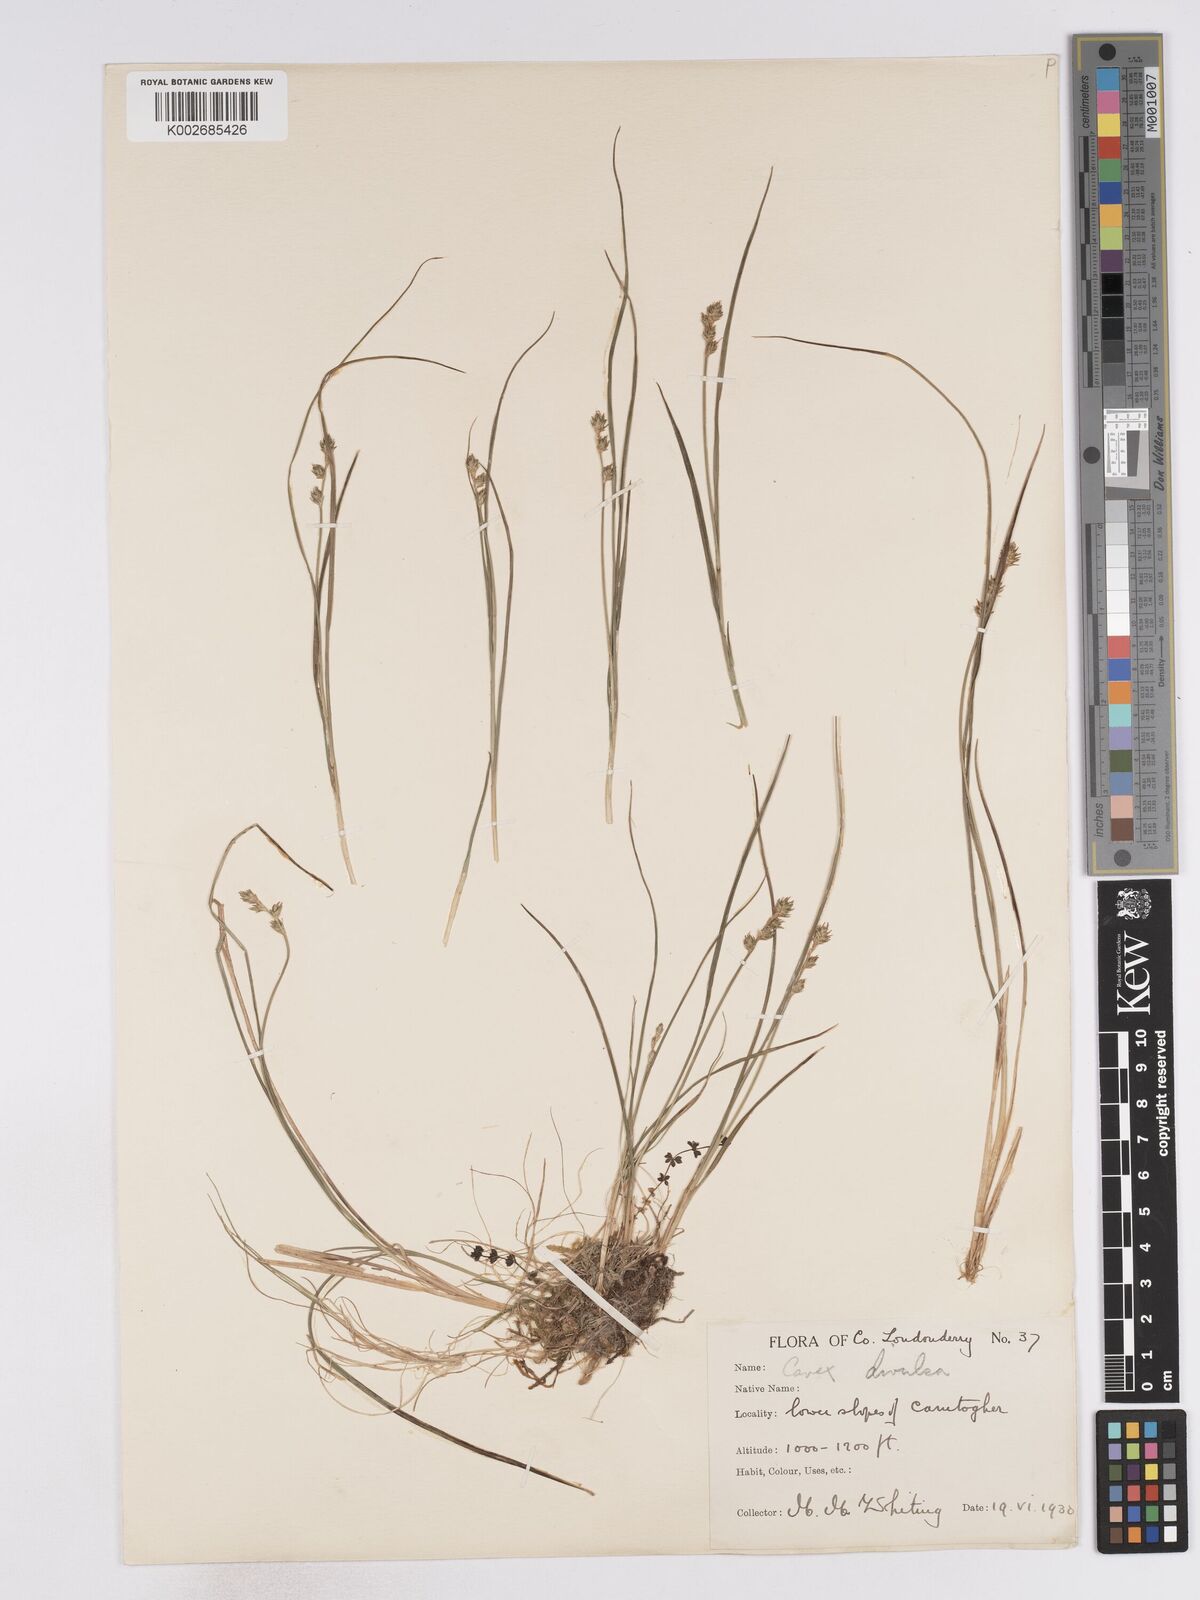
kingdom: Plantae
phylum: Tracheophyta
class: Liliopsida
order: Poales
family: Cyperaceae
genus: Carex
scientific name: Carex echinata
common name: Star sedge
